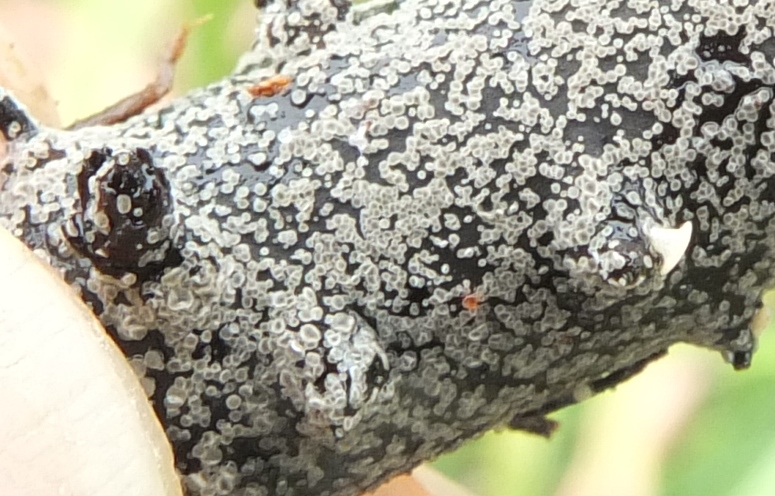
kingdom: Fungi
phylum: Ascomycota
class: Leotiomycetes
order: Helotiales
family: Dermateaceae
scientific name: Dermateaceae
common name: gråskivefamilien
